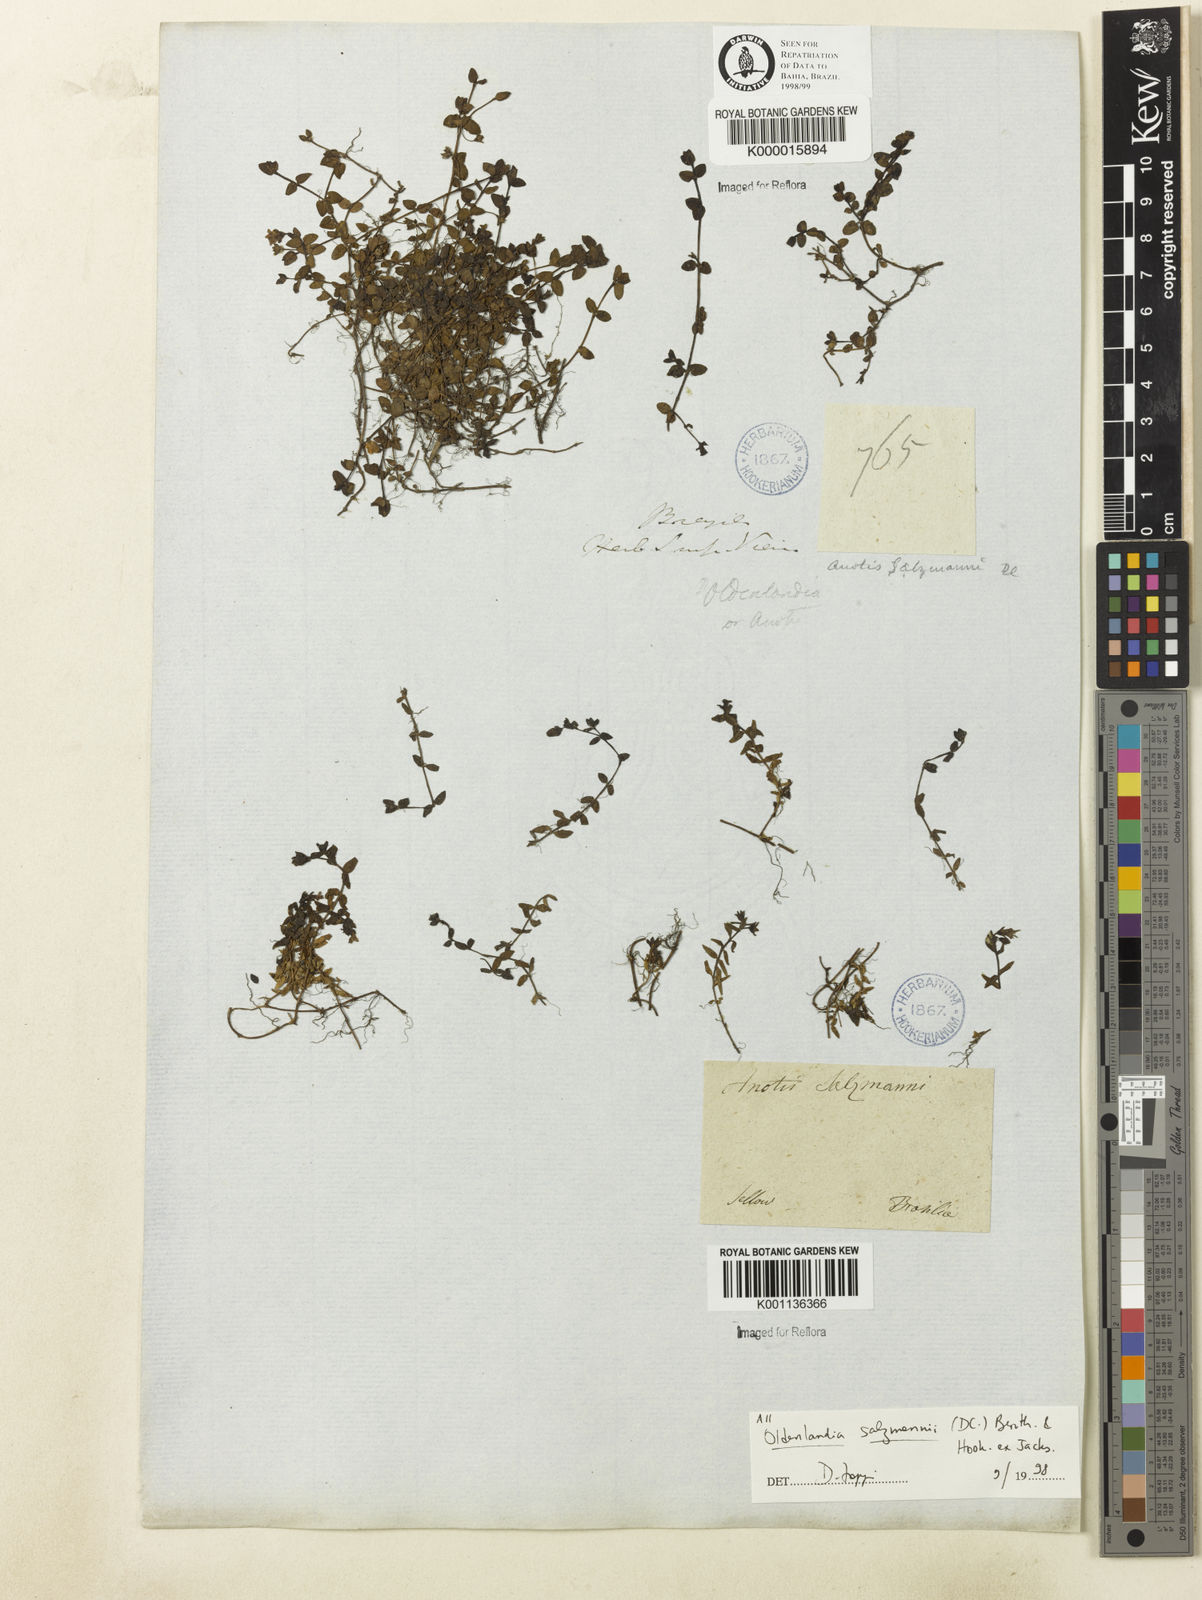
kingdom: Plantae
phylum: Tracheophyta
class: Magnoliopsida
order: Gentianales
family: Rubiaceae
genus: Oldenlandia
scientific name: Oldenlandia salzmannii
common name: Salzmann's mille graines
